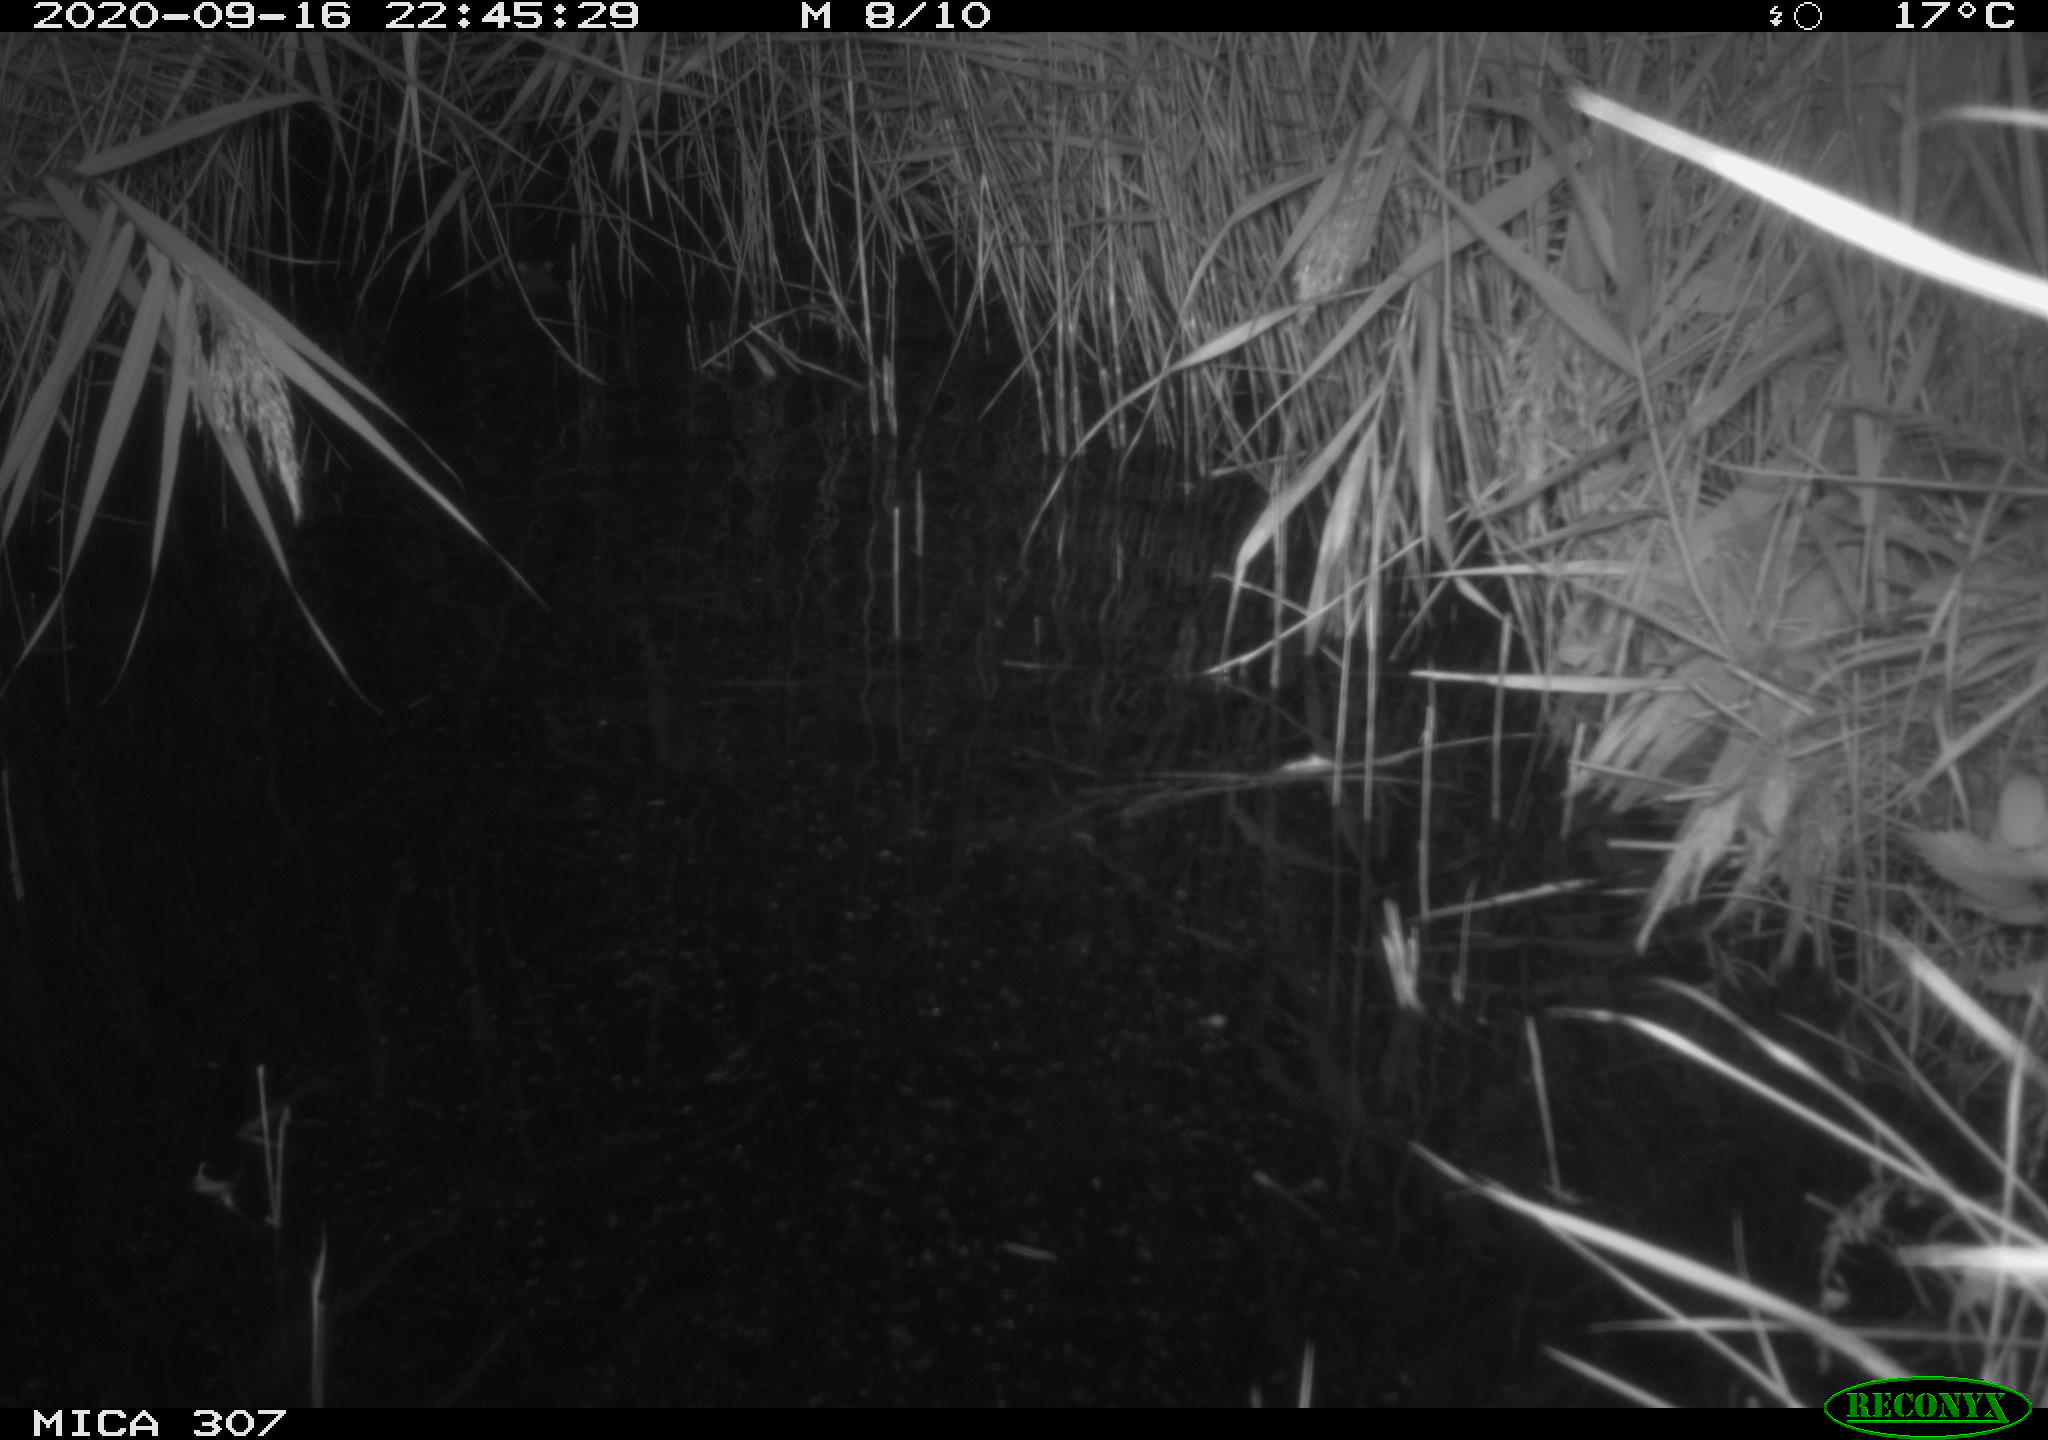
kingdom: Animalia
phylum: Chordata
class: Mammalia
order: Rodentia
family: Muridae
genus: Rattus
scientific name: Rattus norvegicus
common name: Brown rat
